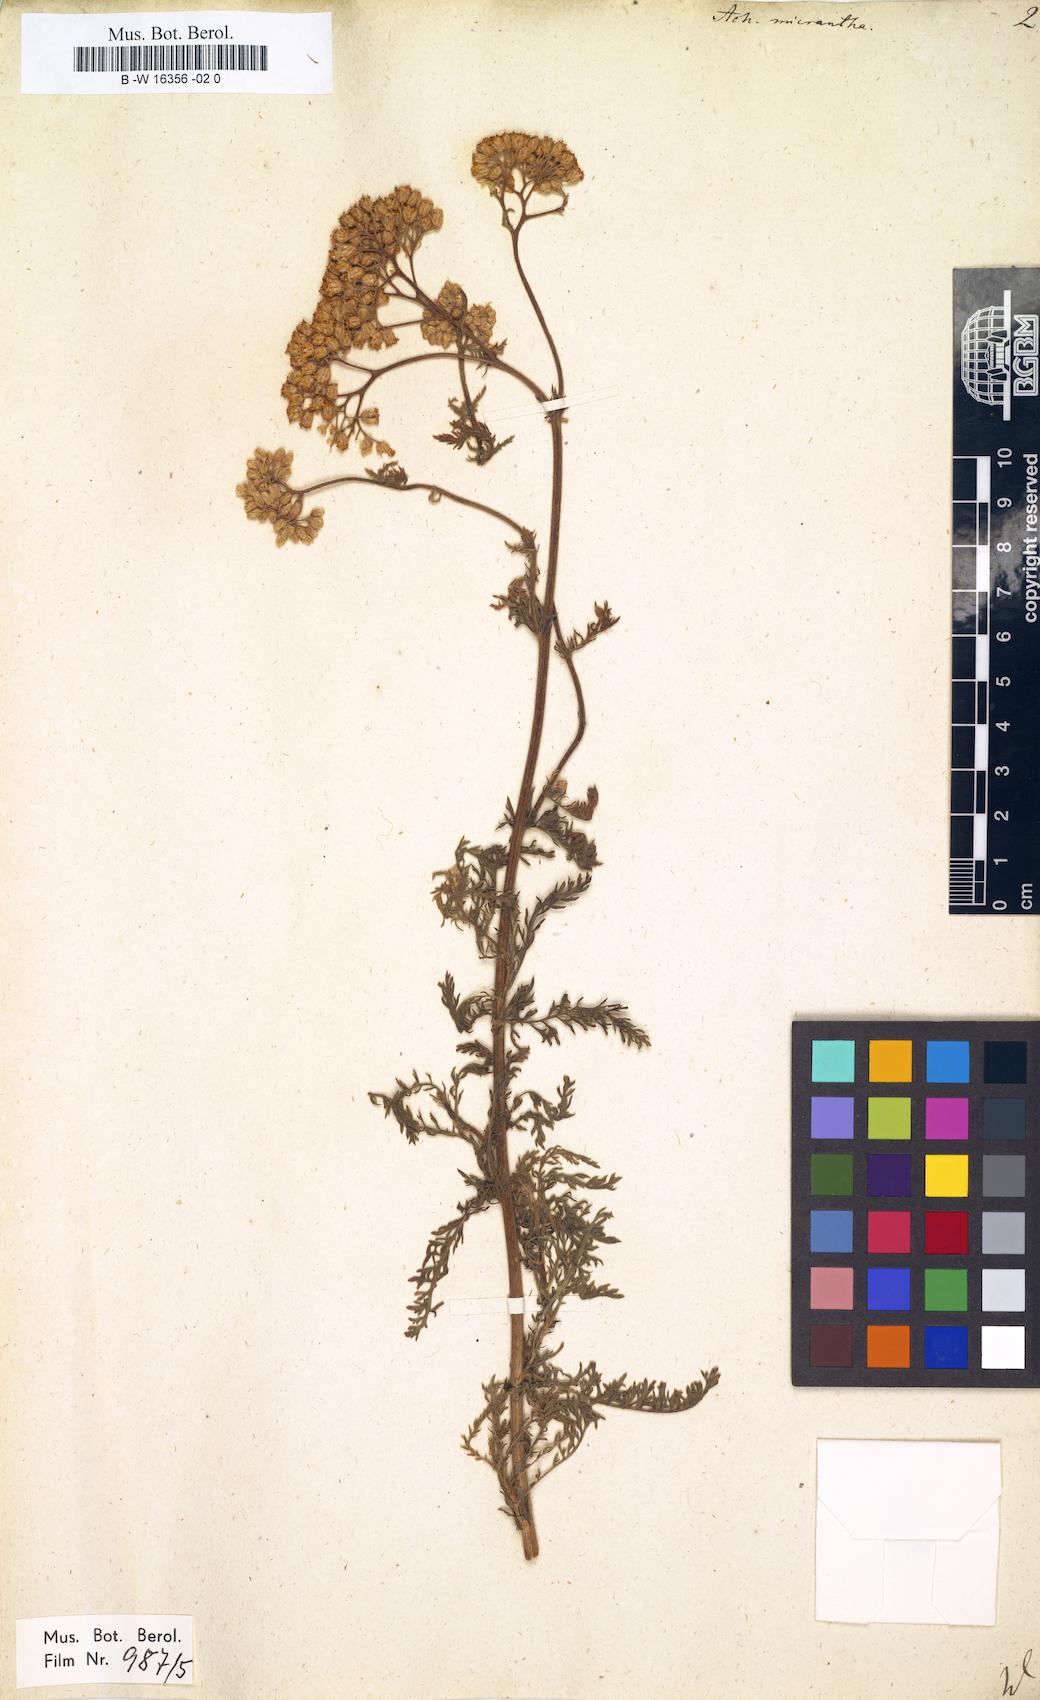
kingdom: Plantae
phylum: Tracheophyta
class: Magnoliopsida
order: Asterales
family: Asteraceae
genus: Achillea
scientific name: Achillea arabica
